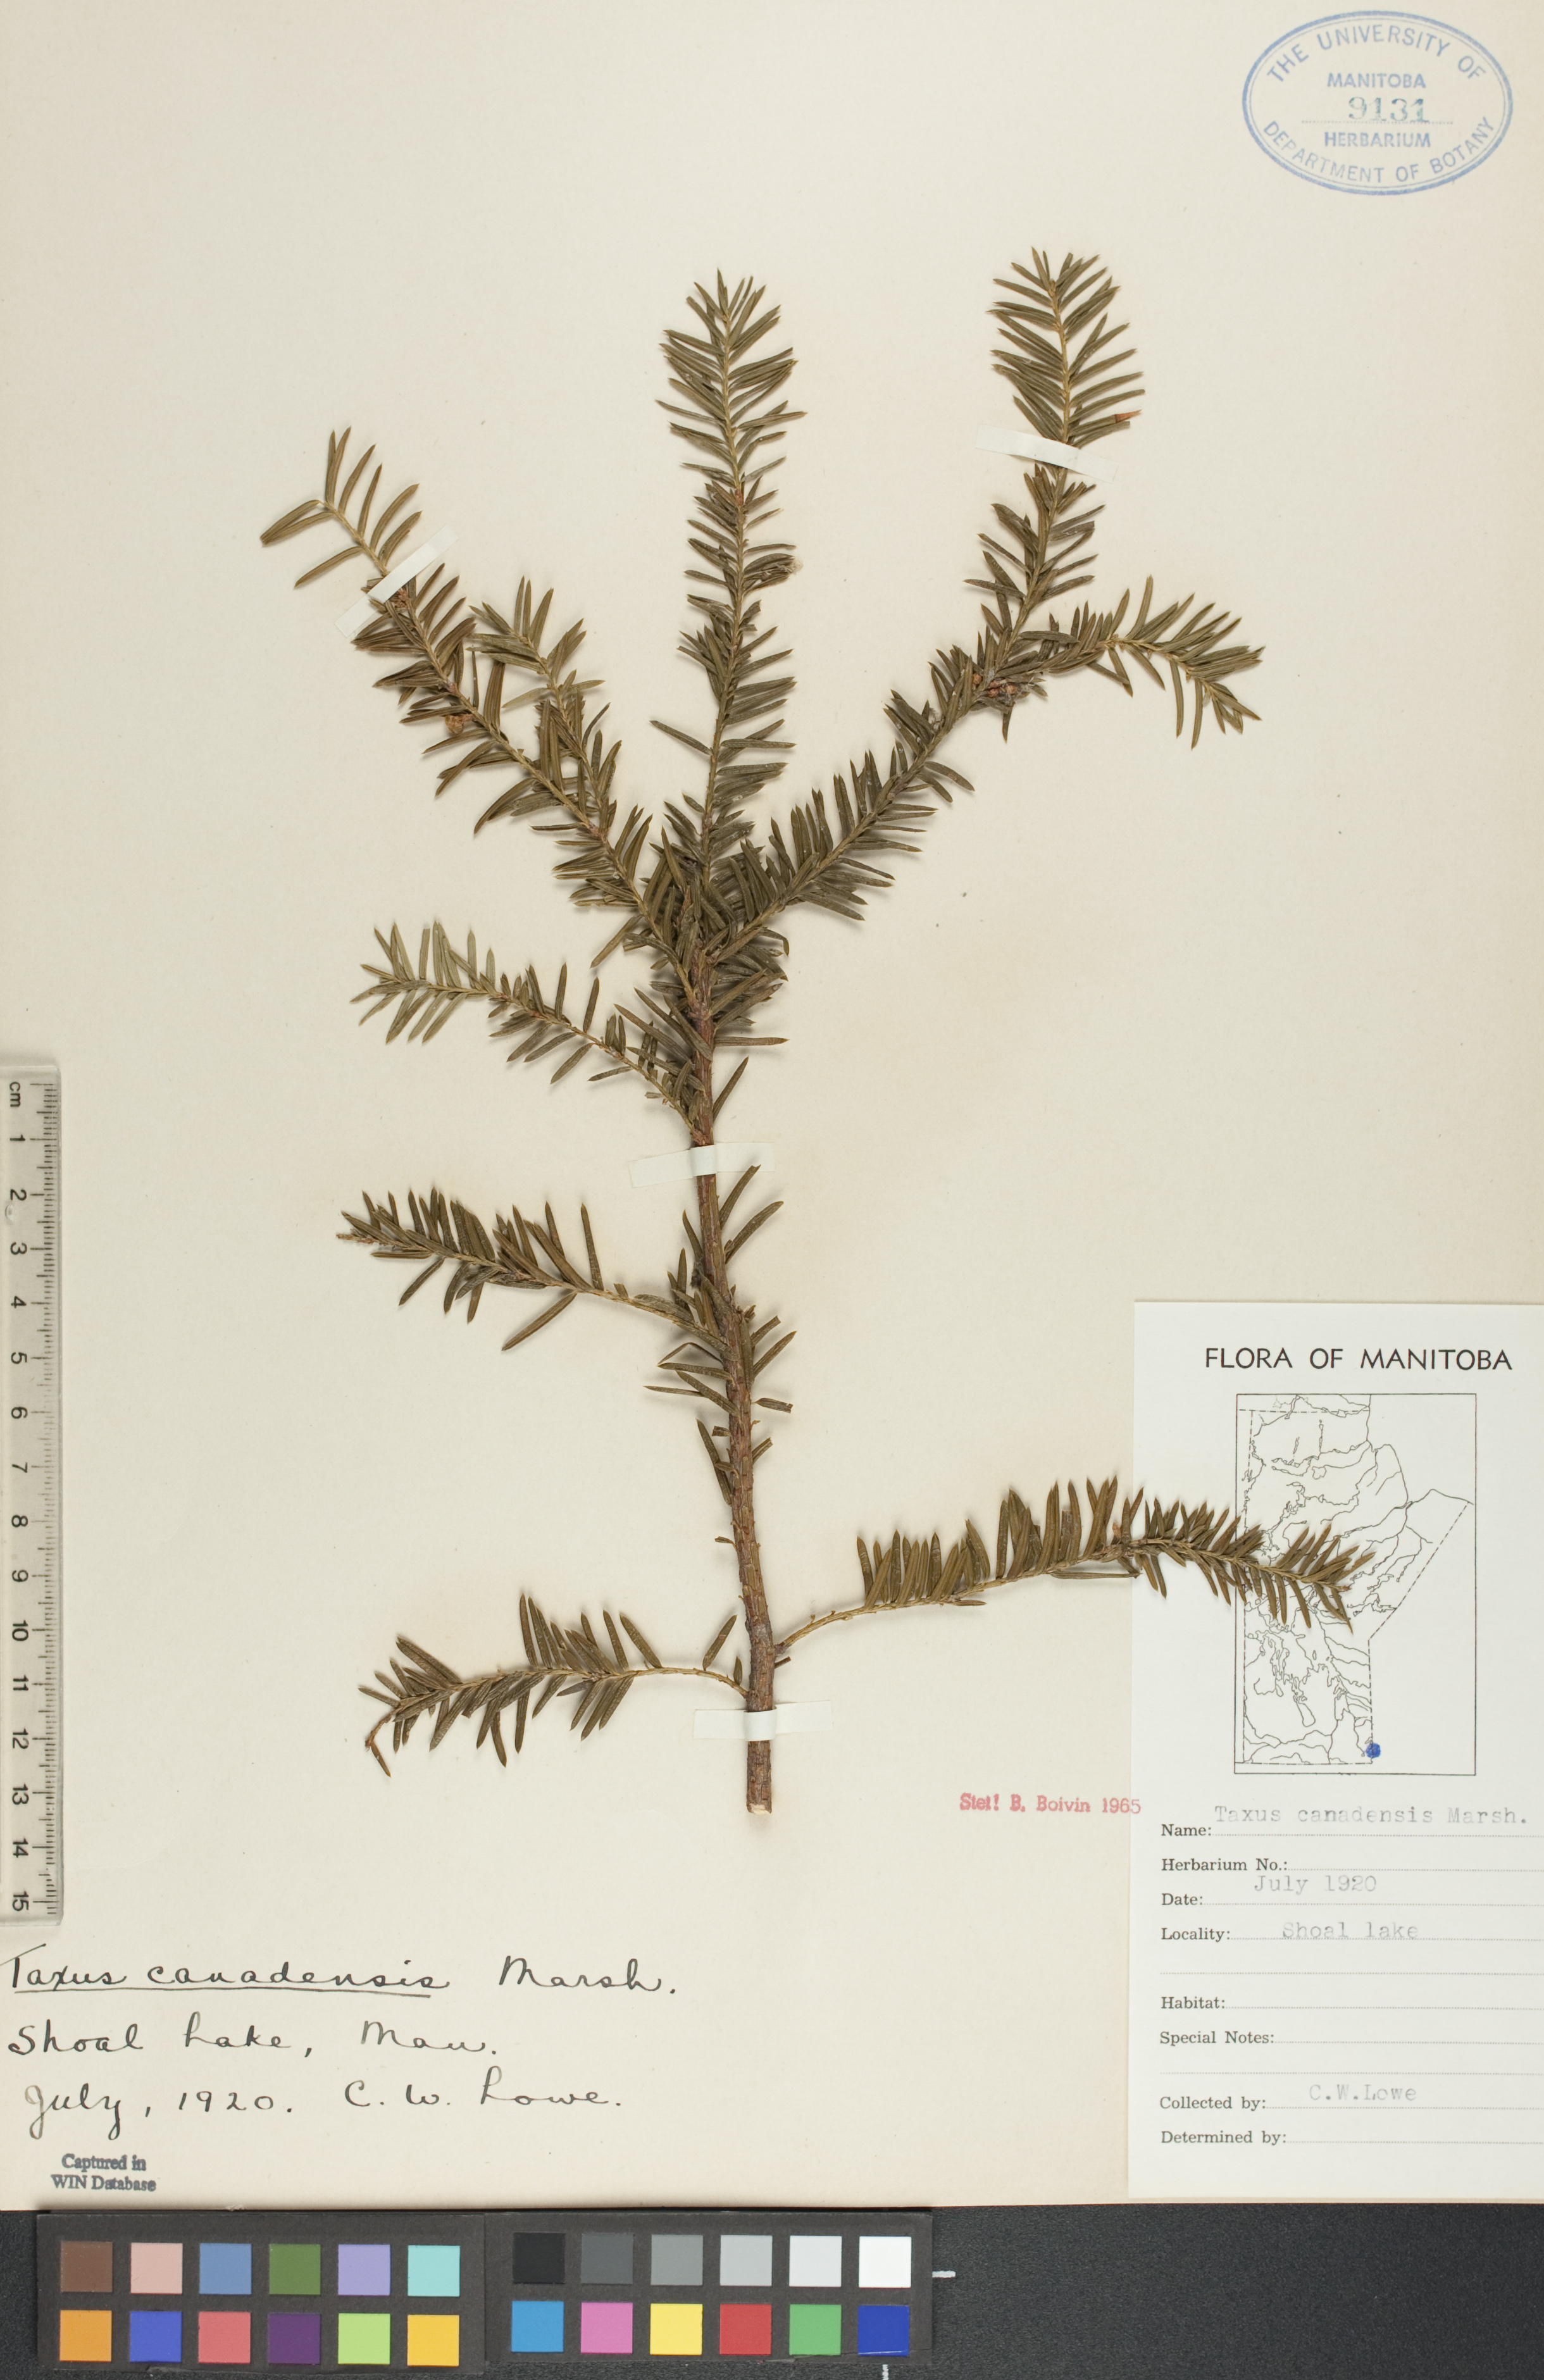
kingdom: Plantae
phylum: Tracheophyta
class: Pinopsida
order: Pinales
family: Taxaceae
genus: Taxus
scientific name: Taxus canadensis
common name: American yew
